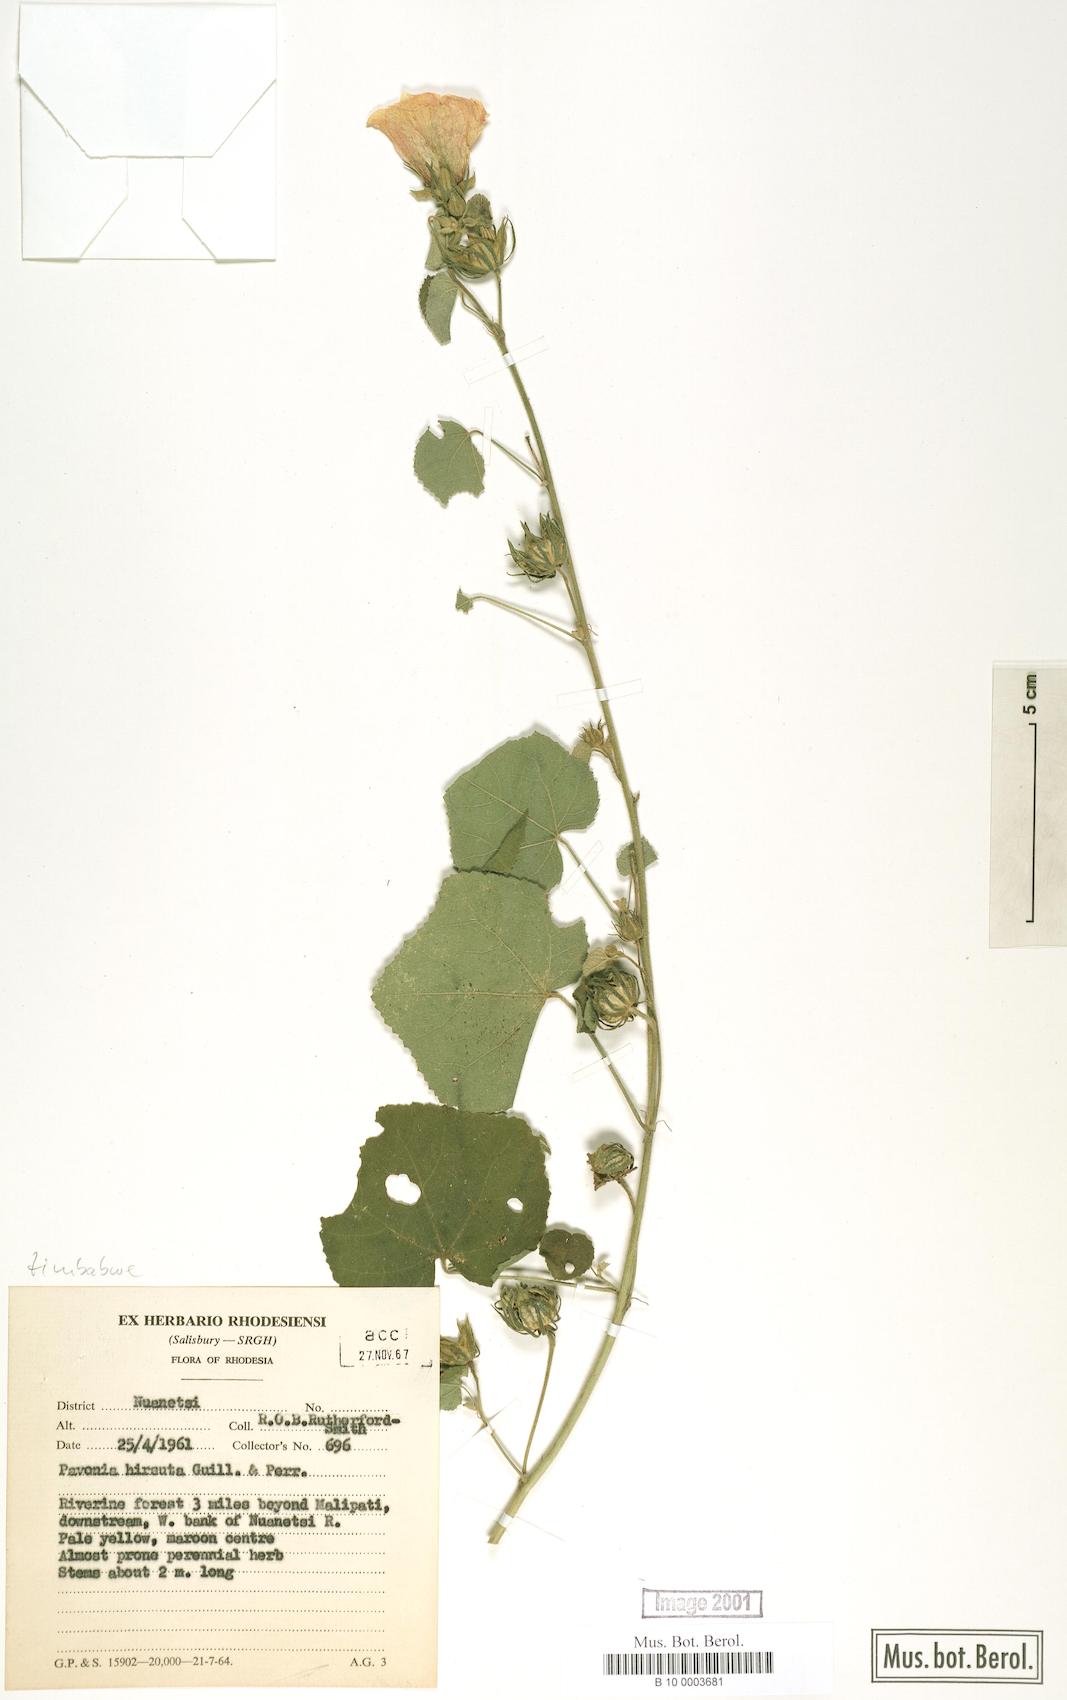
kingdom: Plantae
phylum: Tracheophyta
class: Magnoliopsida
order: Malvales
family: Malvaceae
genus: Pavonia
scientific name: Pavonia senegalensis
